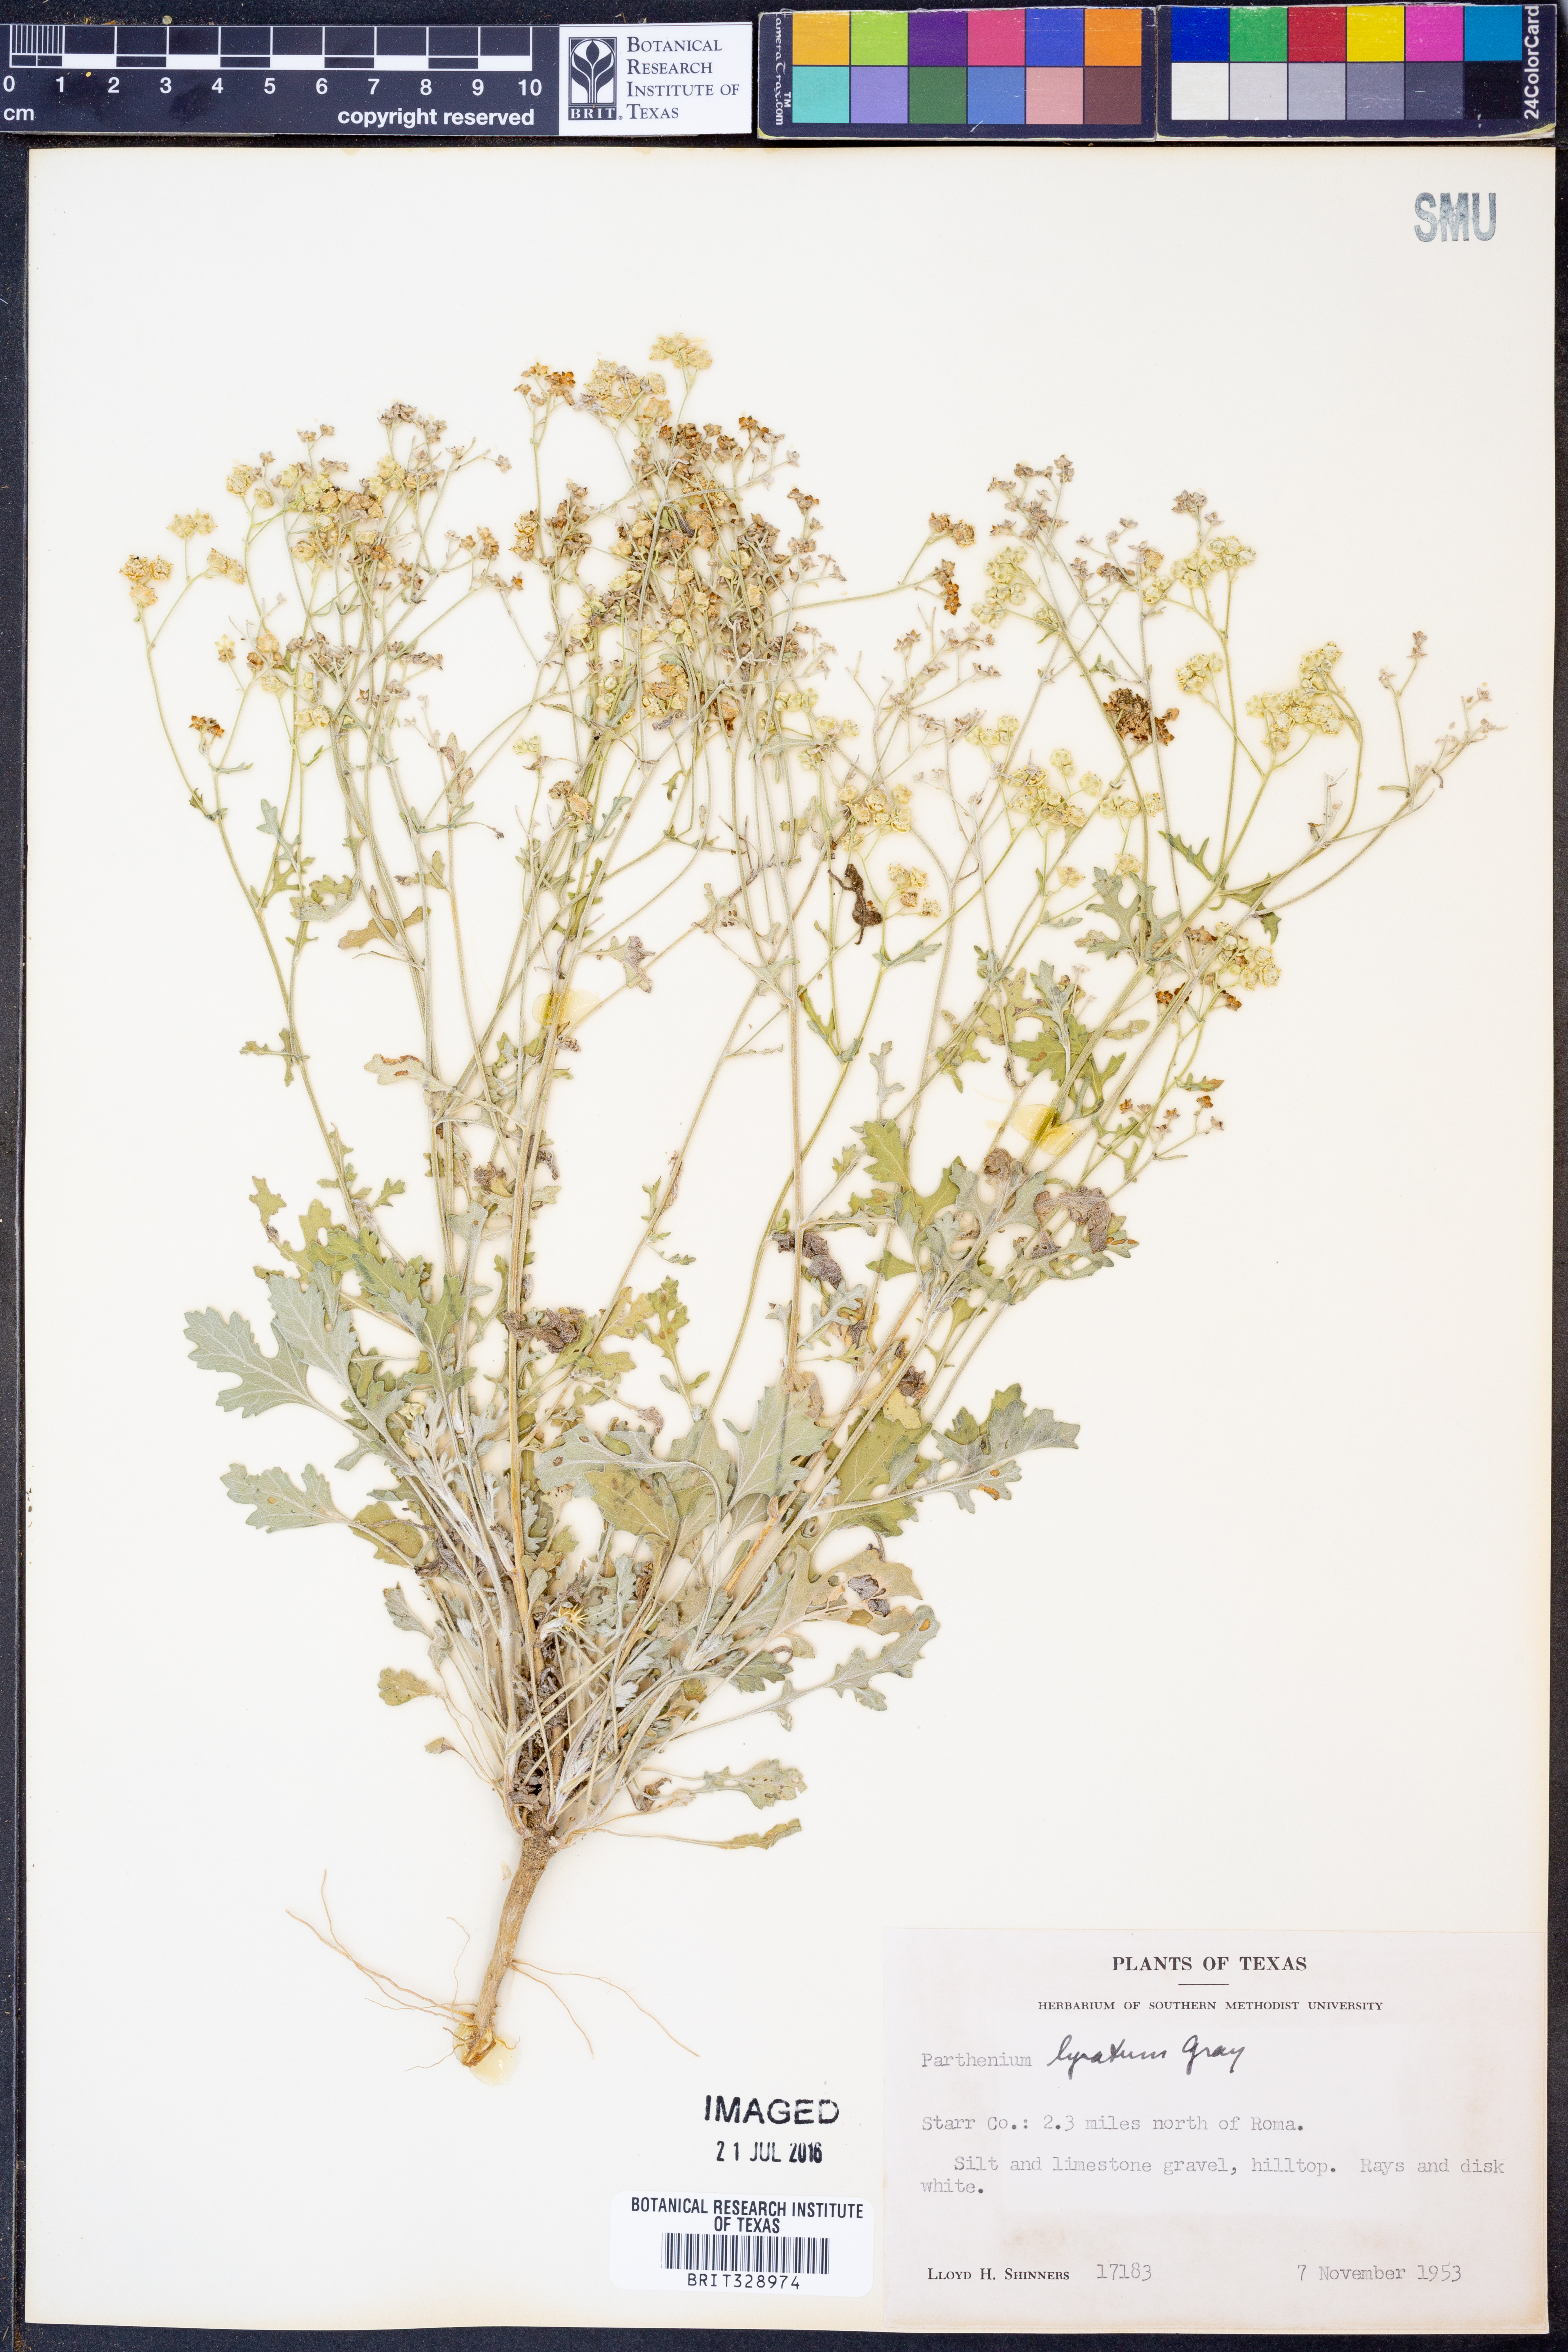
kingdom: Plantae
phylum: Tracheophyta
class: Magnoliopsida
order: Asterales
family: Asteraceae
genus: Parthenium
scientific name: Parthenium confertum
